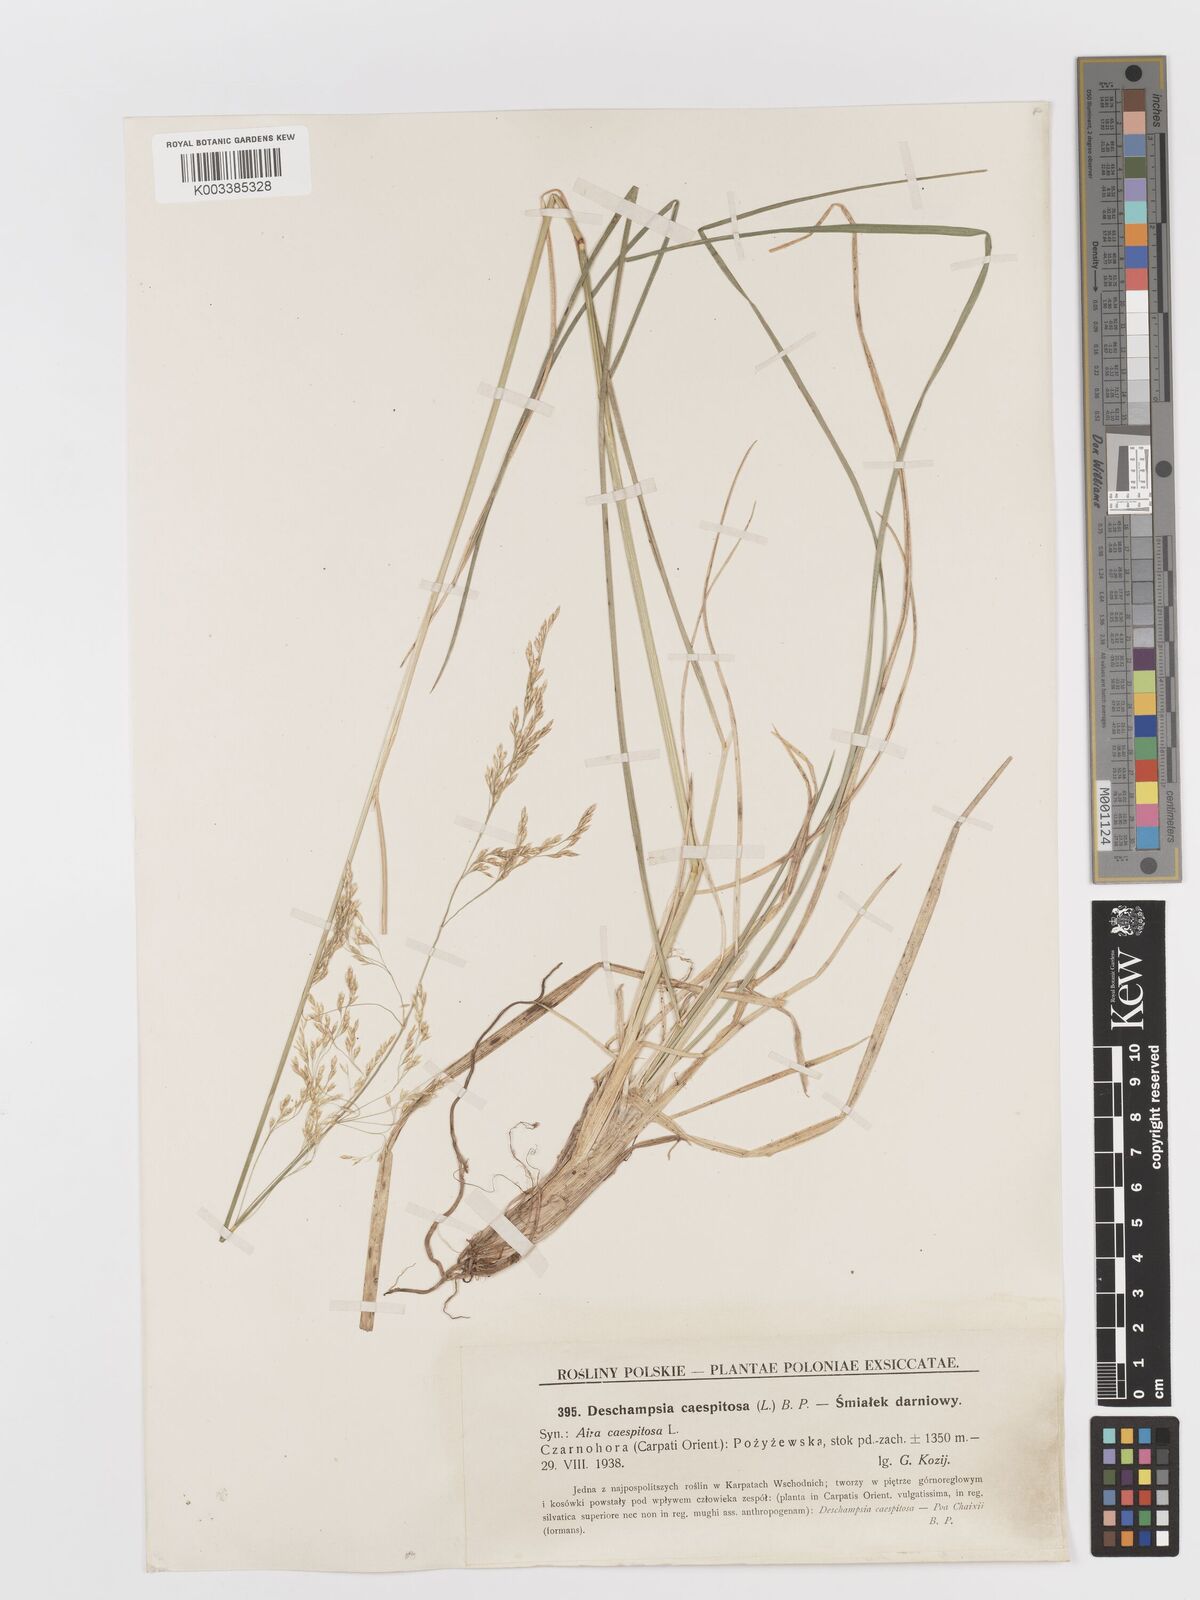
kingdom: Plantae
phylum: Tracheophyta
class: Liliopsida
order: Poales
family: Poaceae
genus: Deschampsia
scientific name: Deschampsia cespitosa
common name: Tufted hair-grass
